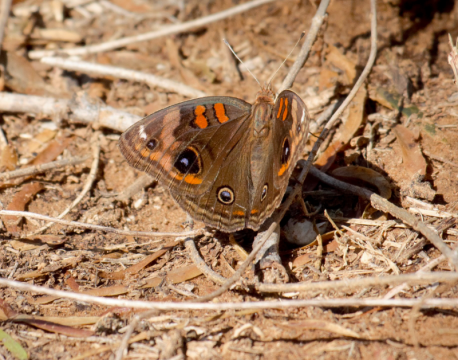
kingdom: Animalia
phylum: Arthropoda
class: Insecta
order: Lepidoptera
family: Nymphalidae
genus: Junonia
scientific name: Junonia lavinia
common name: Tropical Buckeye
